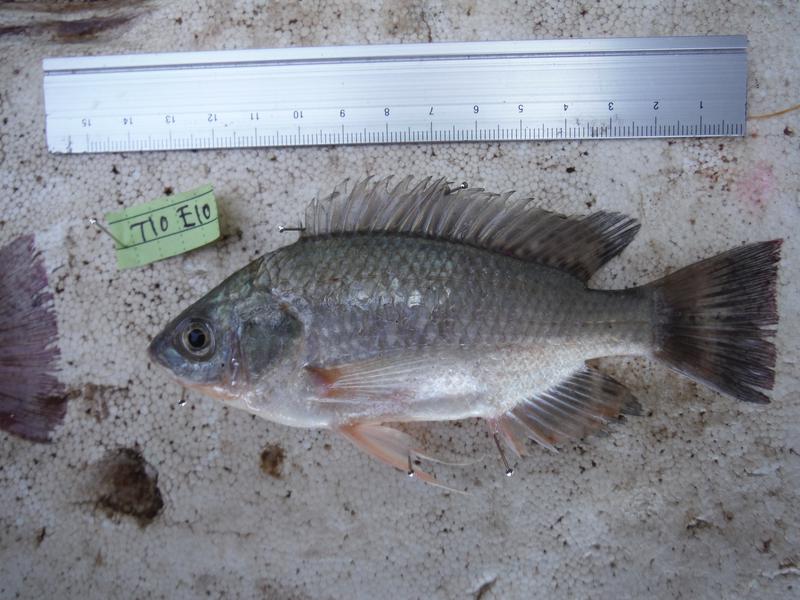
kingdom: Animalia
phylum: Chordata
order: Perciformes
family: Cichlidae
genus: Oreochromis
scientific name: Oreochromis esculentus
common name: Carp
